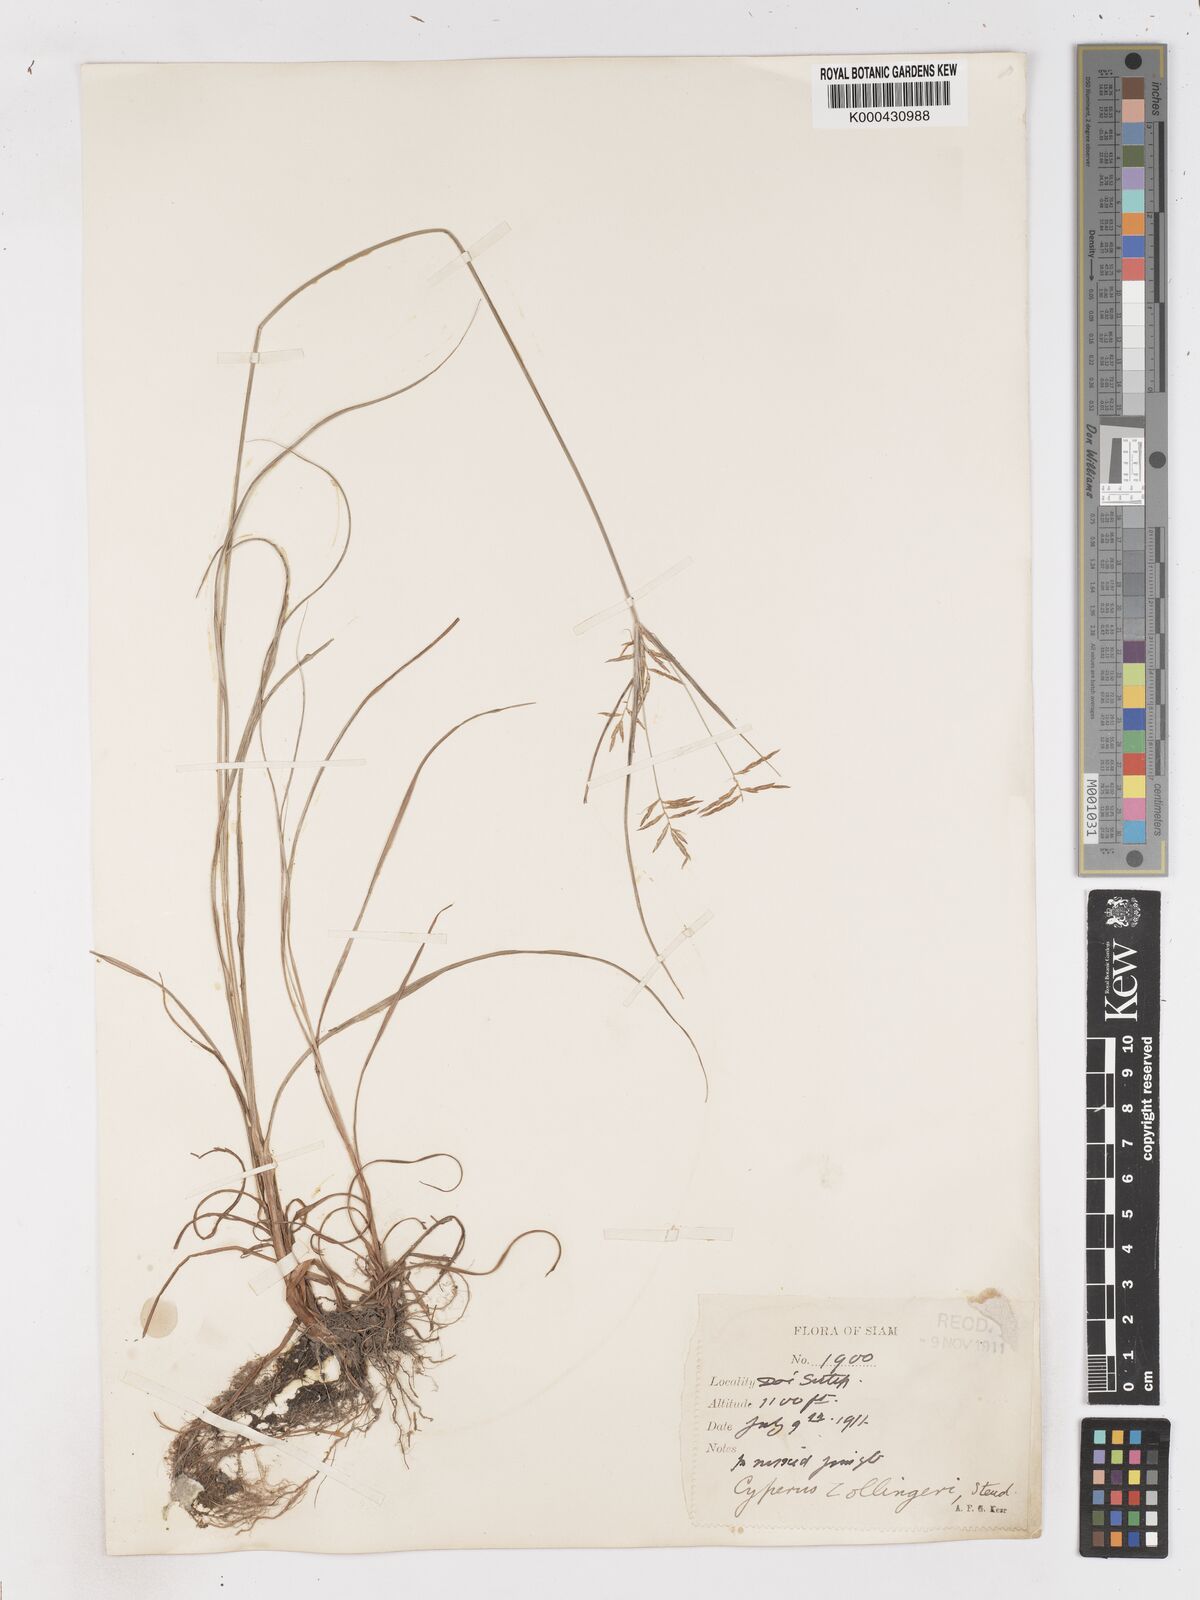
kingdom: Plantae
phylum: Tracheophyta
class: Liliopsida
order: Poales
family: Cyperaceae
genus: Cyperus
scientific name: Cyperus tenuiculmis
